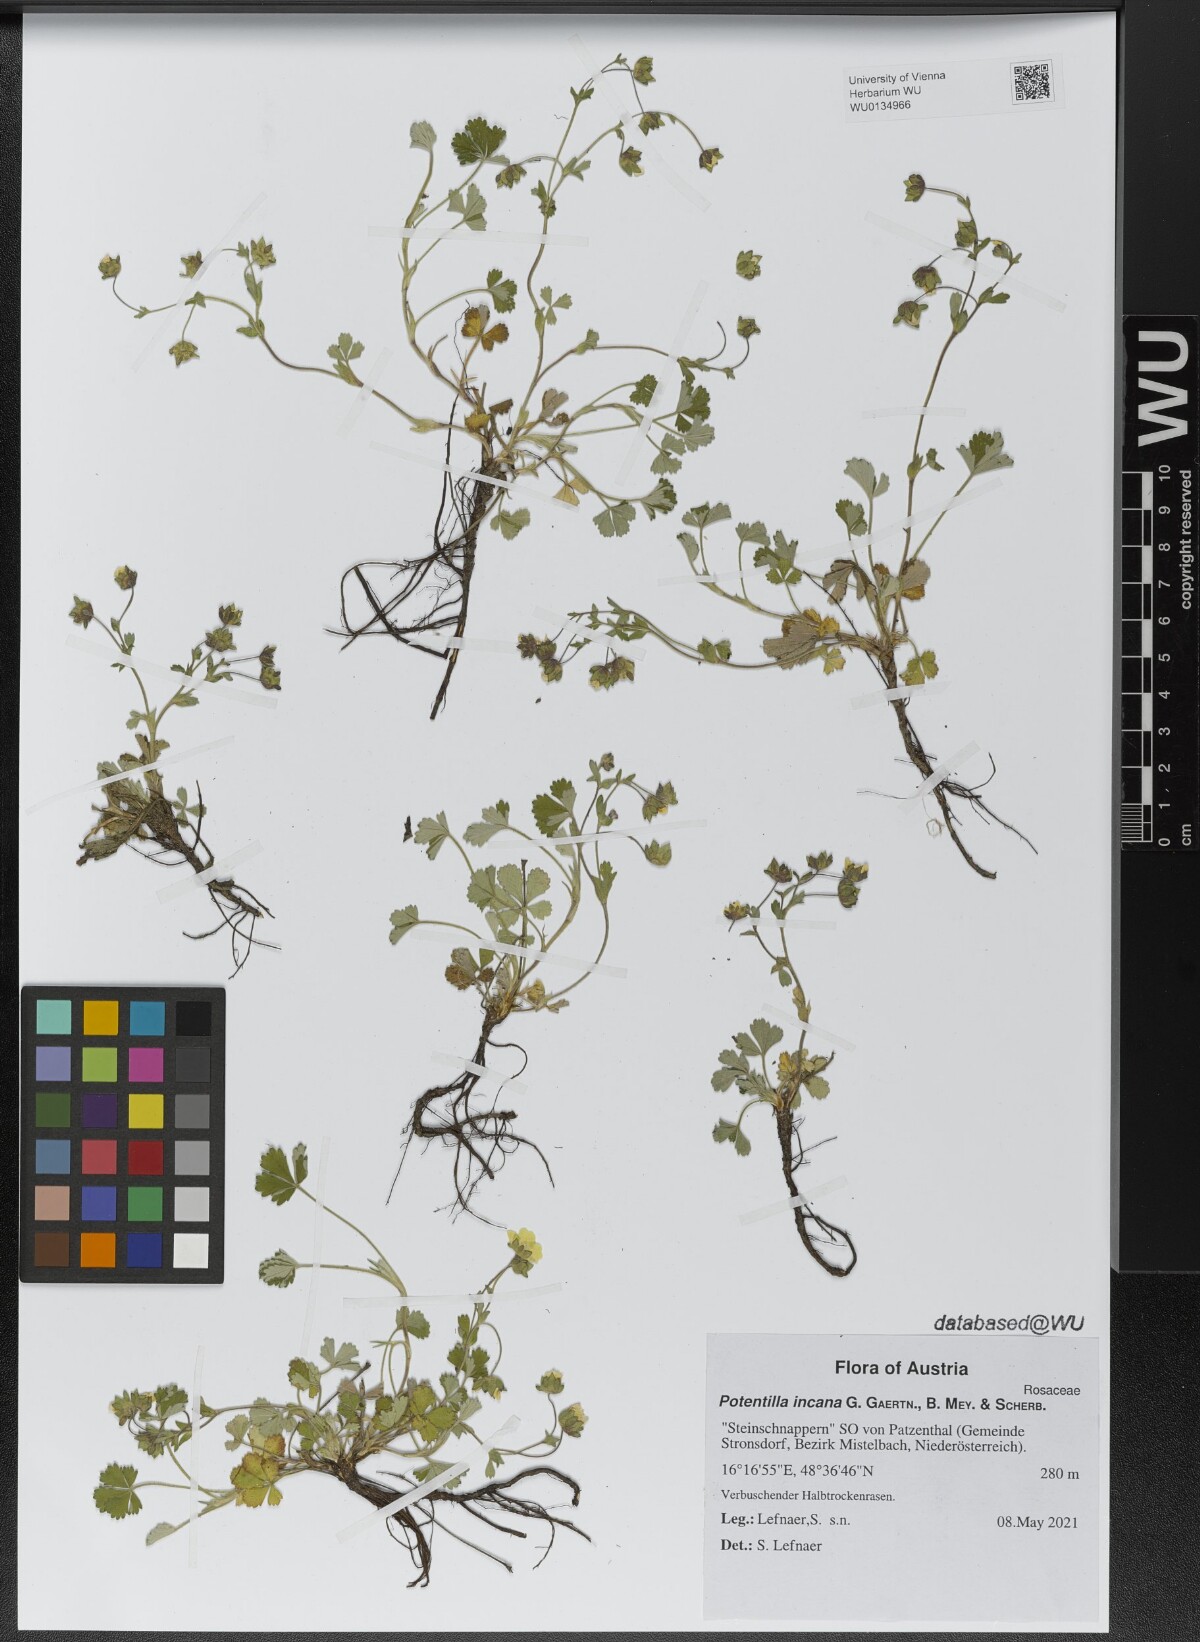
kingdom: Plantae
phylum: Tracheophyta
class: Magnoliopsida
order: Rosales
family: Rosaceae
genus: Potentilla
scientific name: Potentilla cinerea
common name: Ashy cinquefoil
